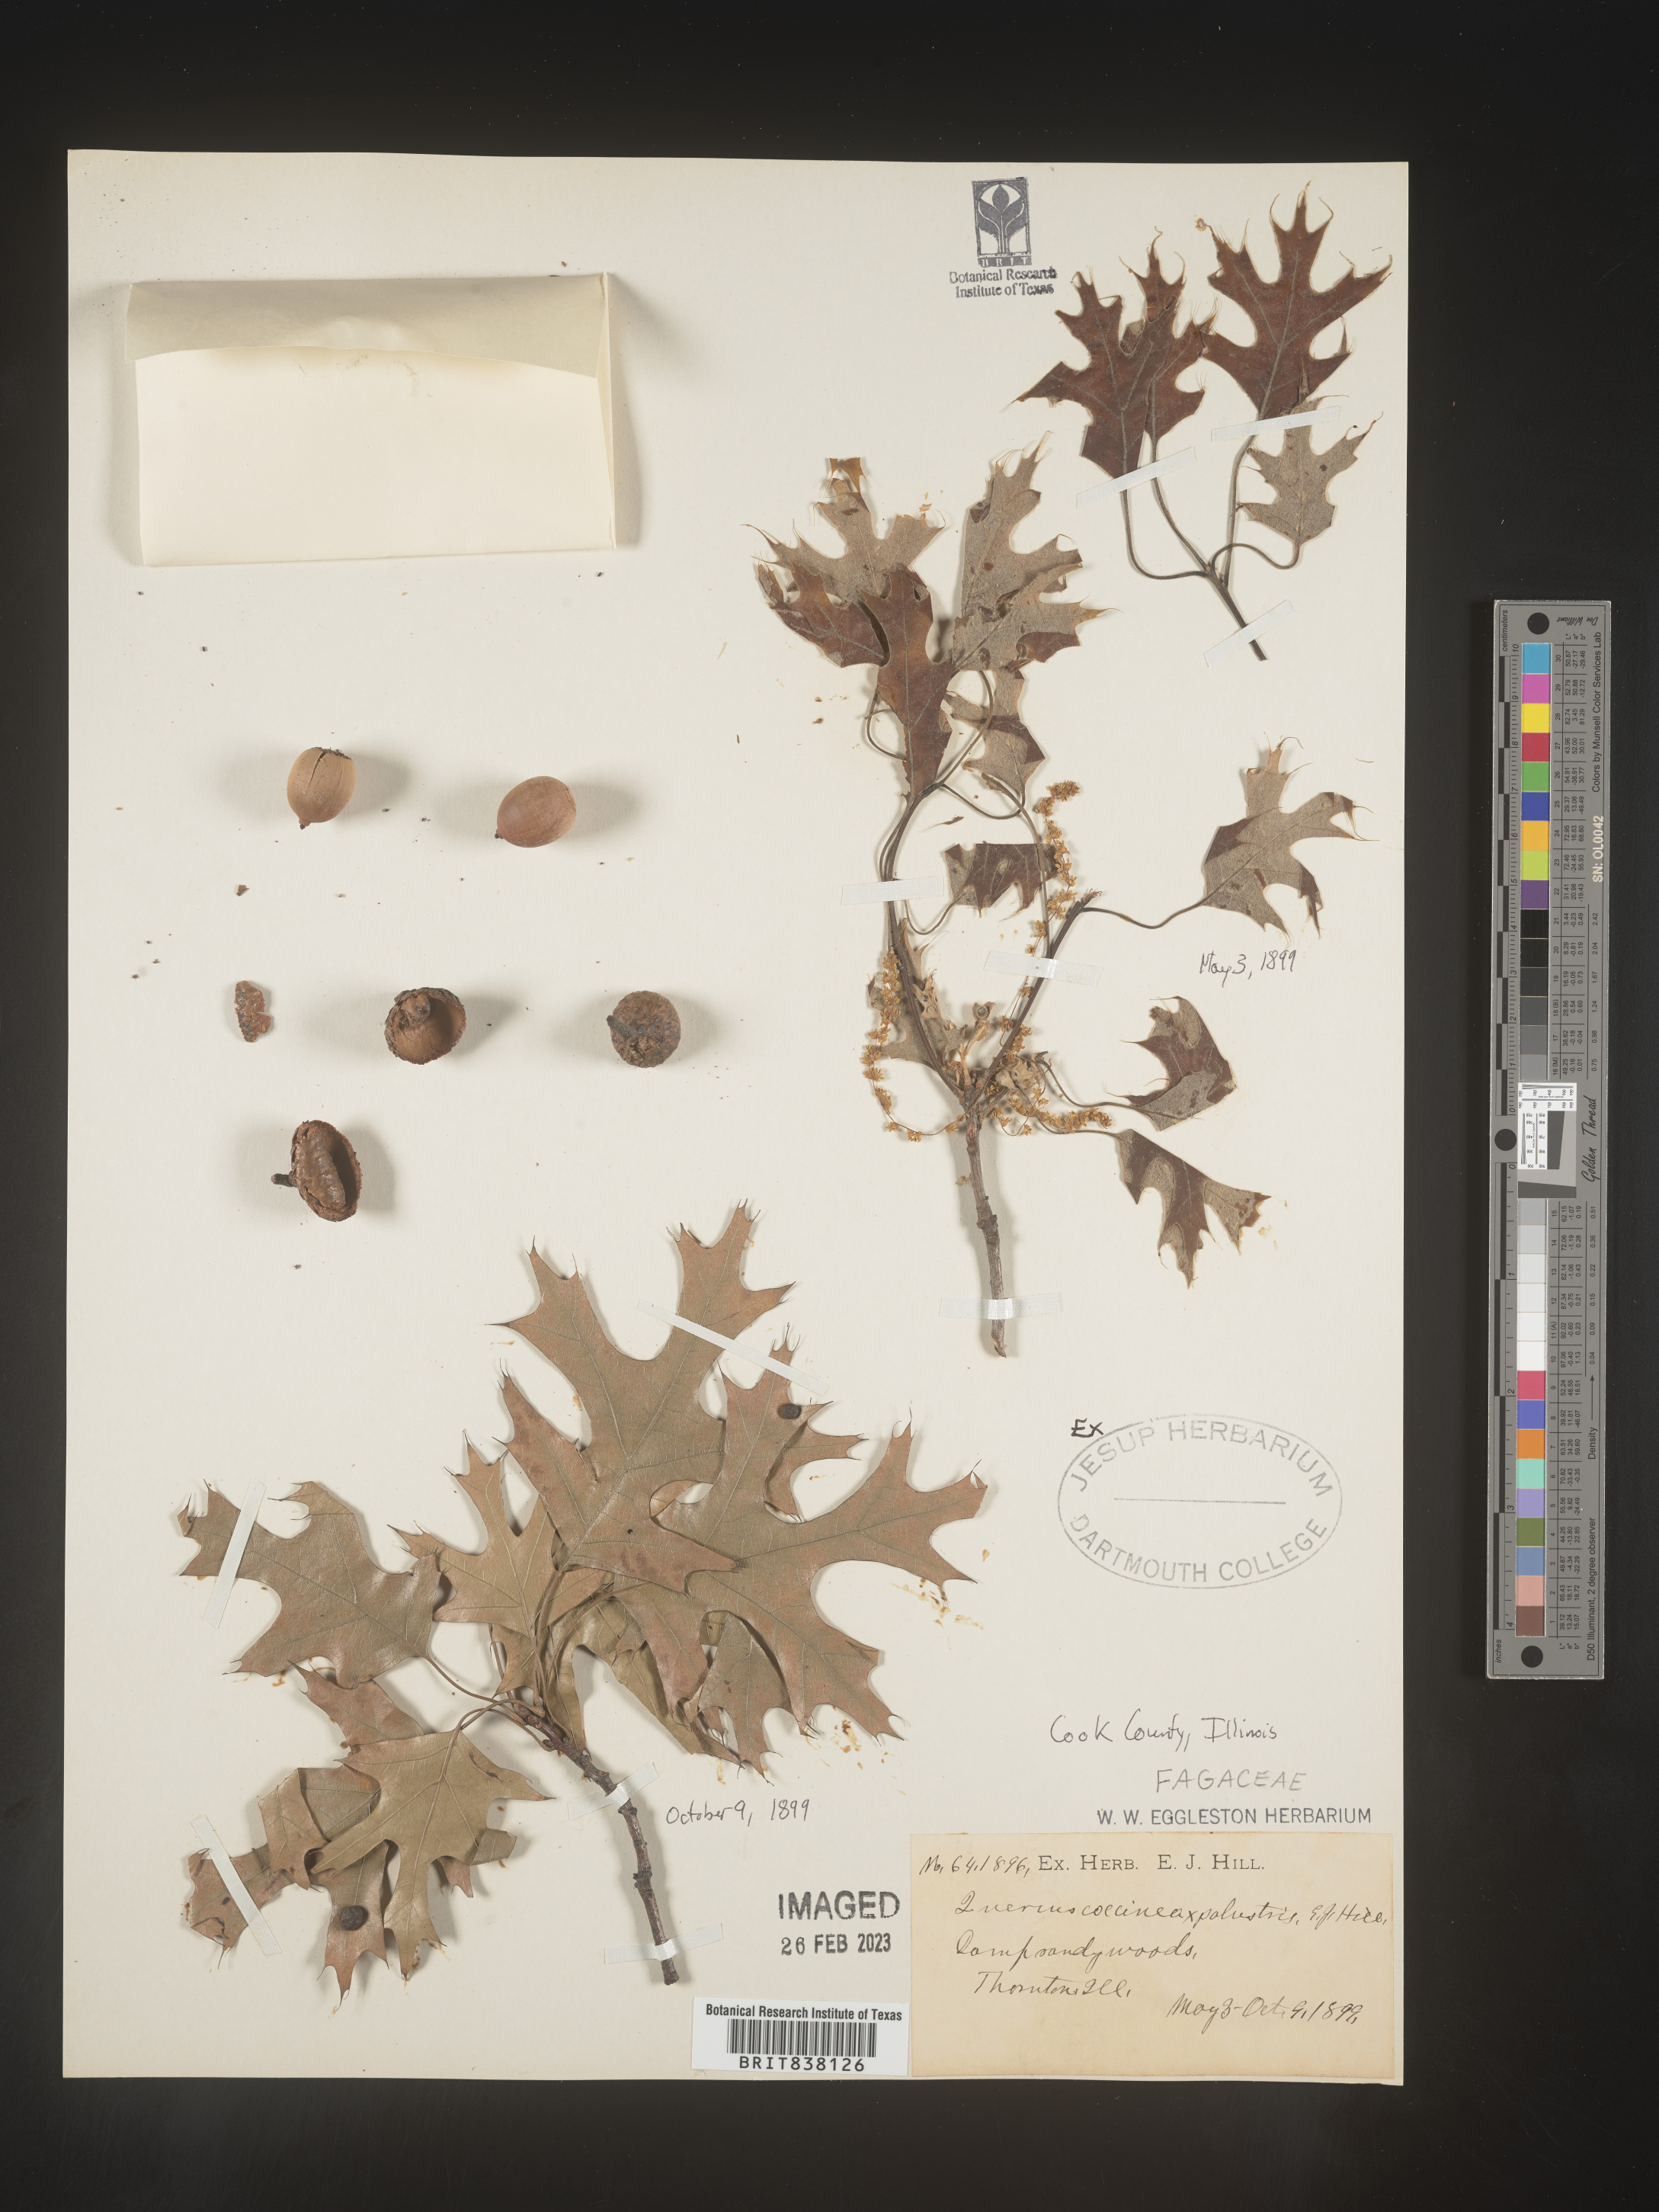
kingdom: Plantae
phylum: Tracheophyta
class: Magnoliopsida
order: Fagales
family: Fagaceae
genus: Quercus
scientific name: Quercus coccinea
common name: Scarlet oak
